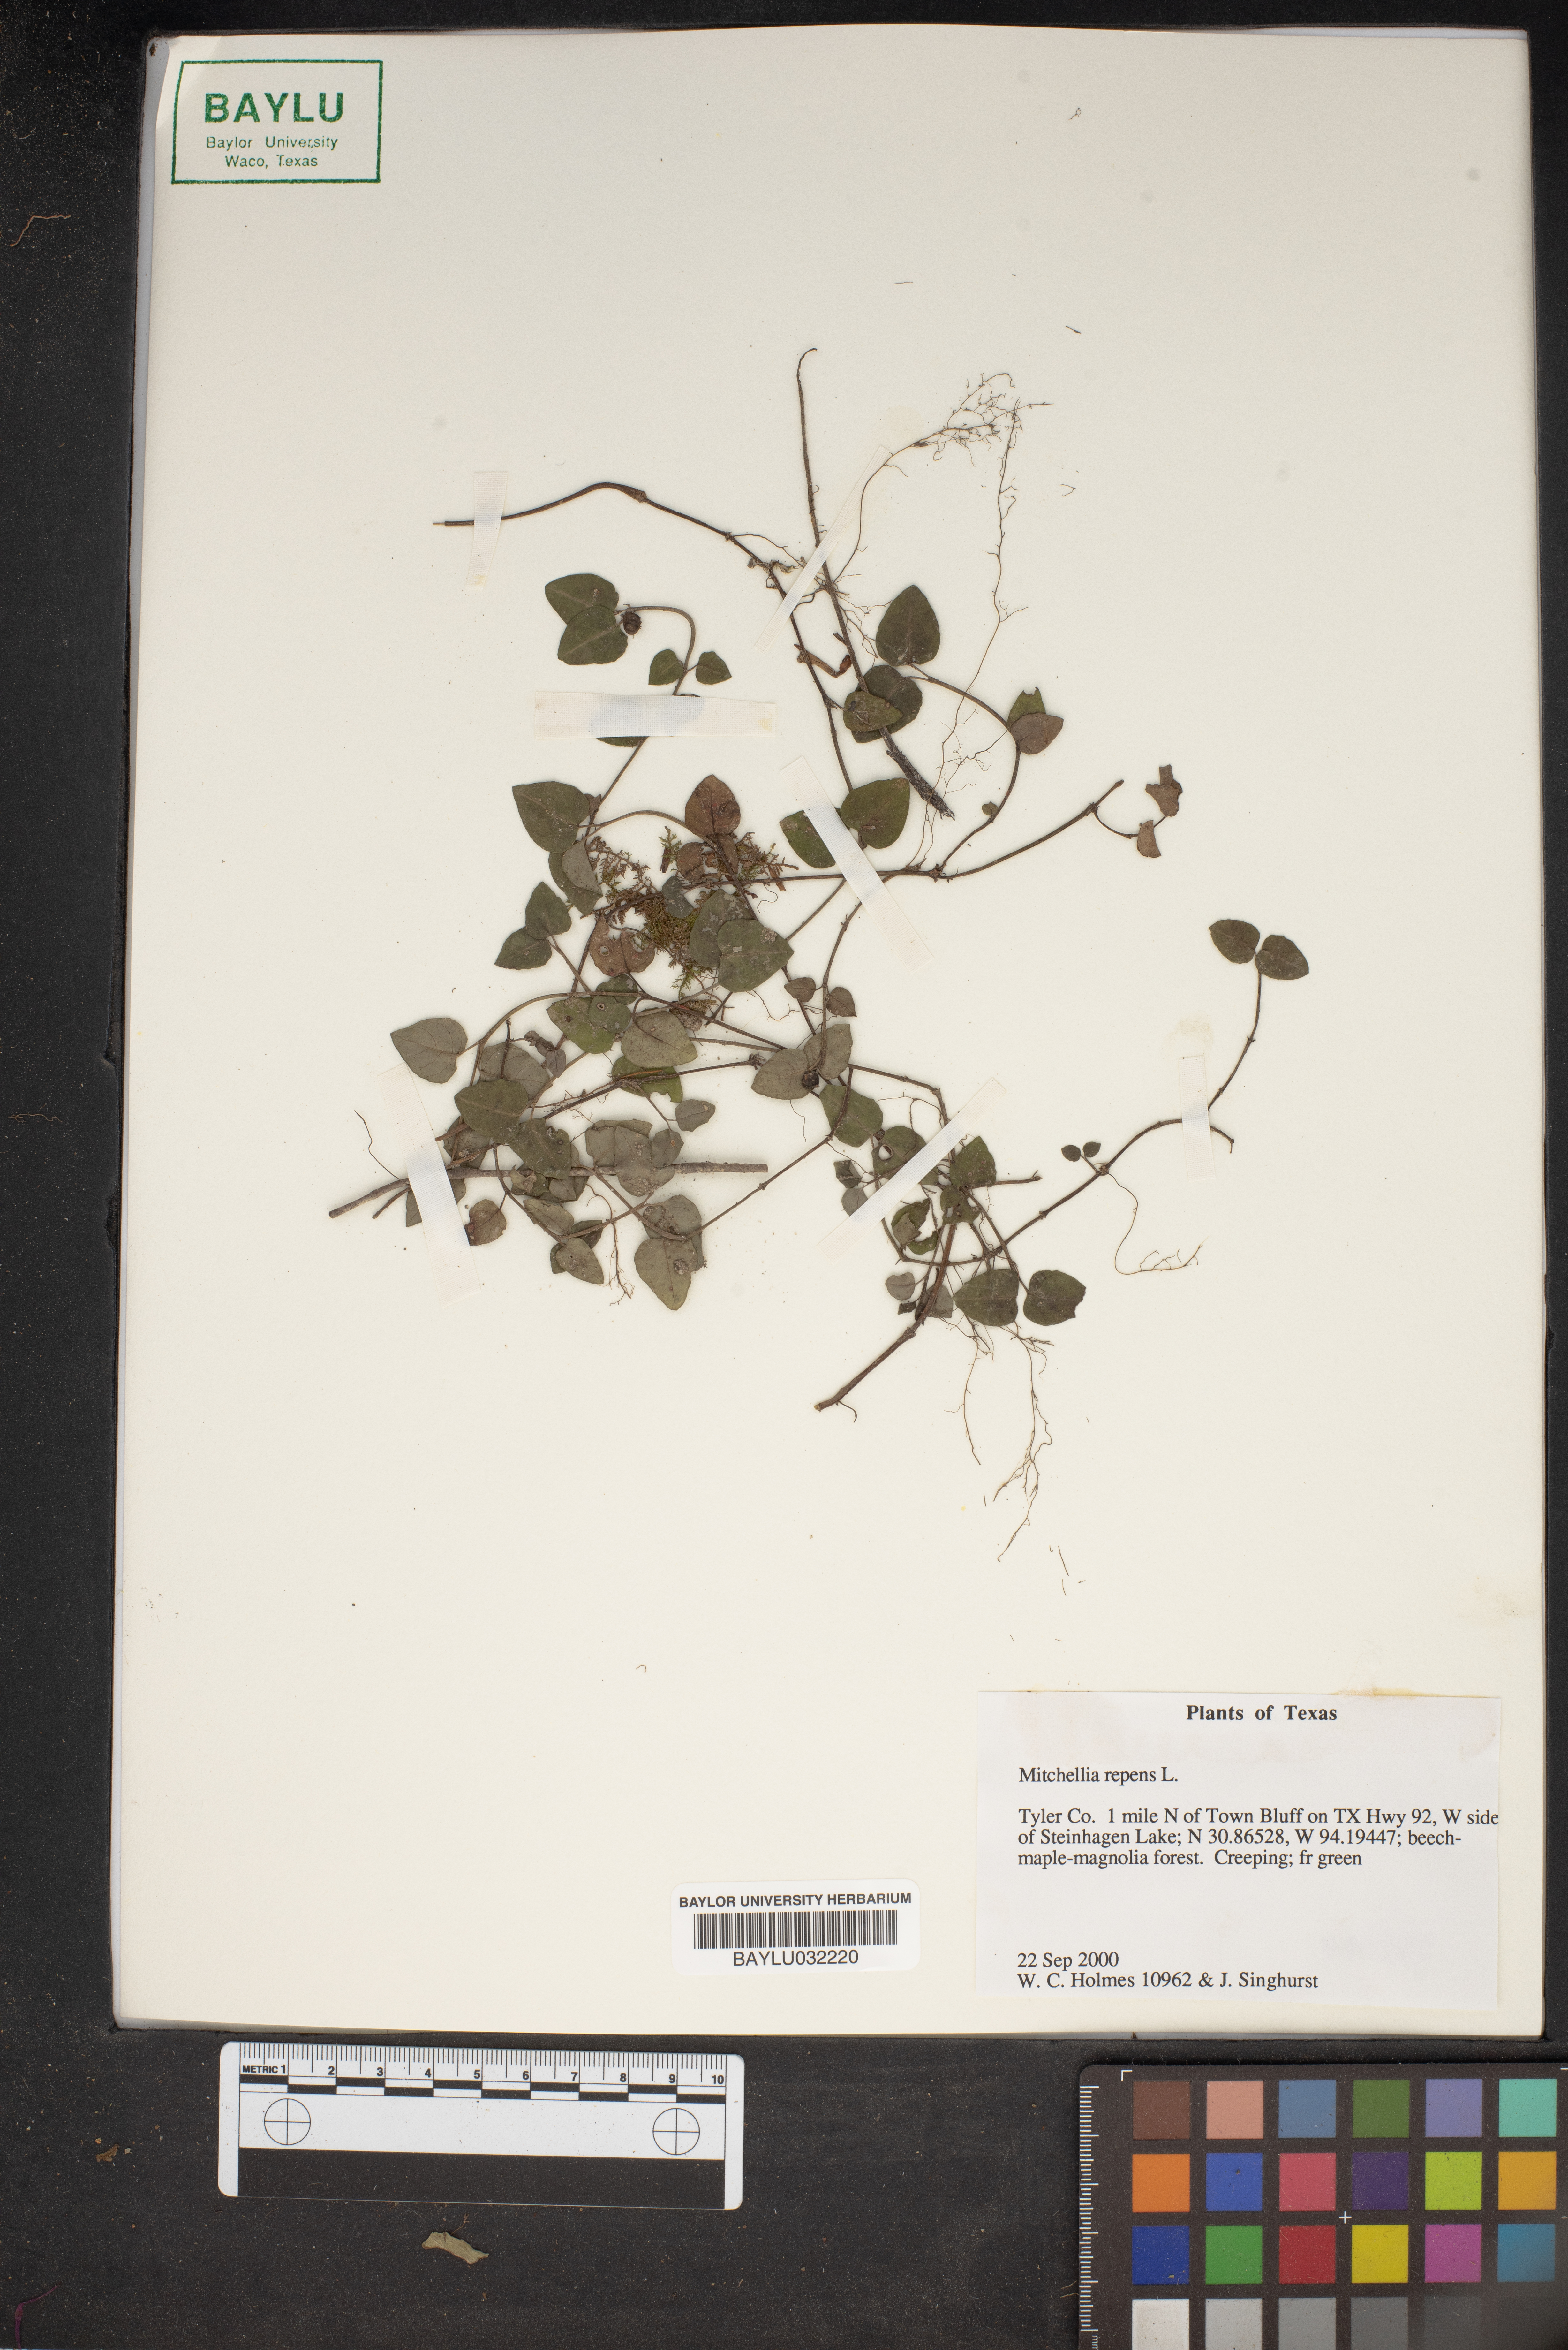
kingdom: Plantae
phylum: Tracheophyta
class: Magnoliopsida
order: Gentianales
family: Rubiaceae
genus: Mitchella
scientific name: Mitchella repens
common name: Partridge-berry
